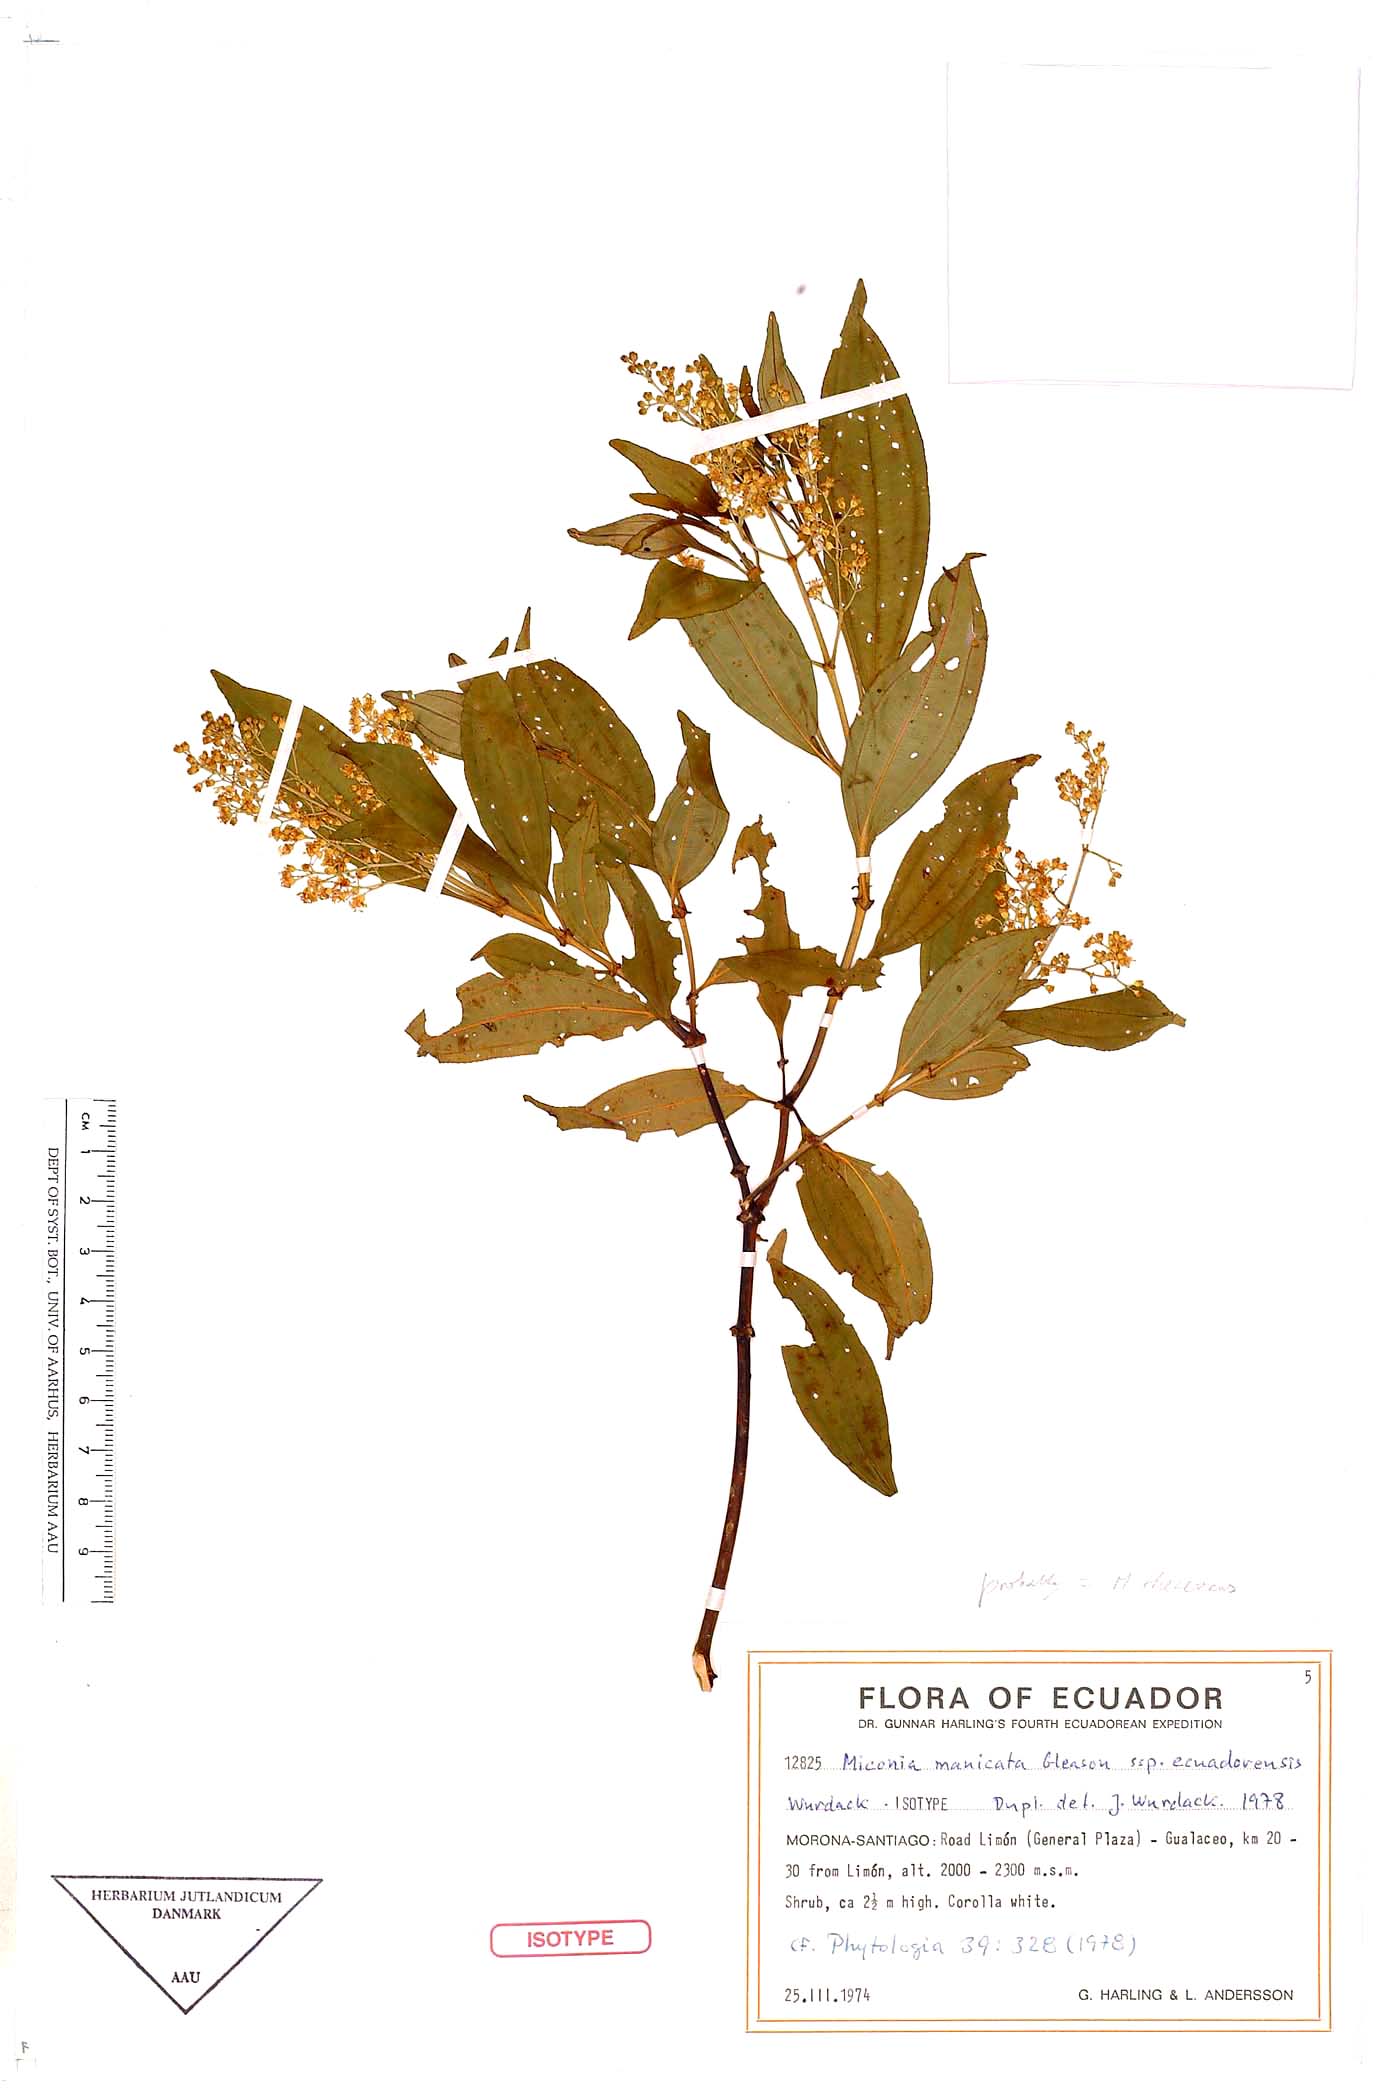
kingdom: Plantae
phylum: Tracheophyta
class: Magnoliopsida
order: Myrtales
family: Melastomataceae
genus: Miconia
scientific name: Miconia manicata
